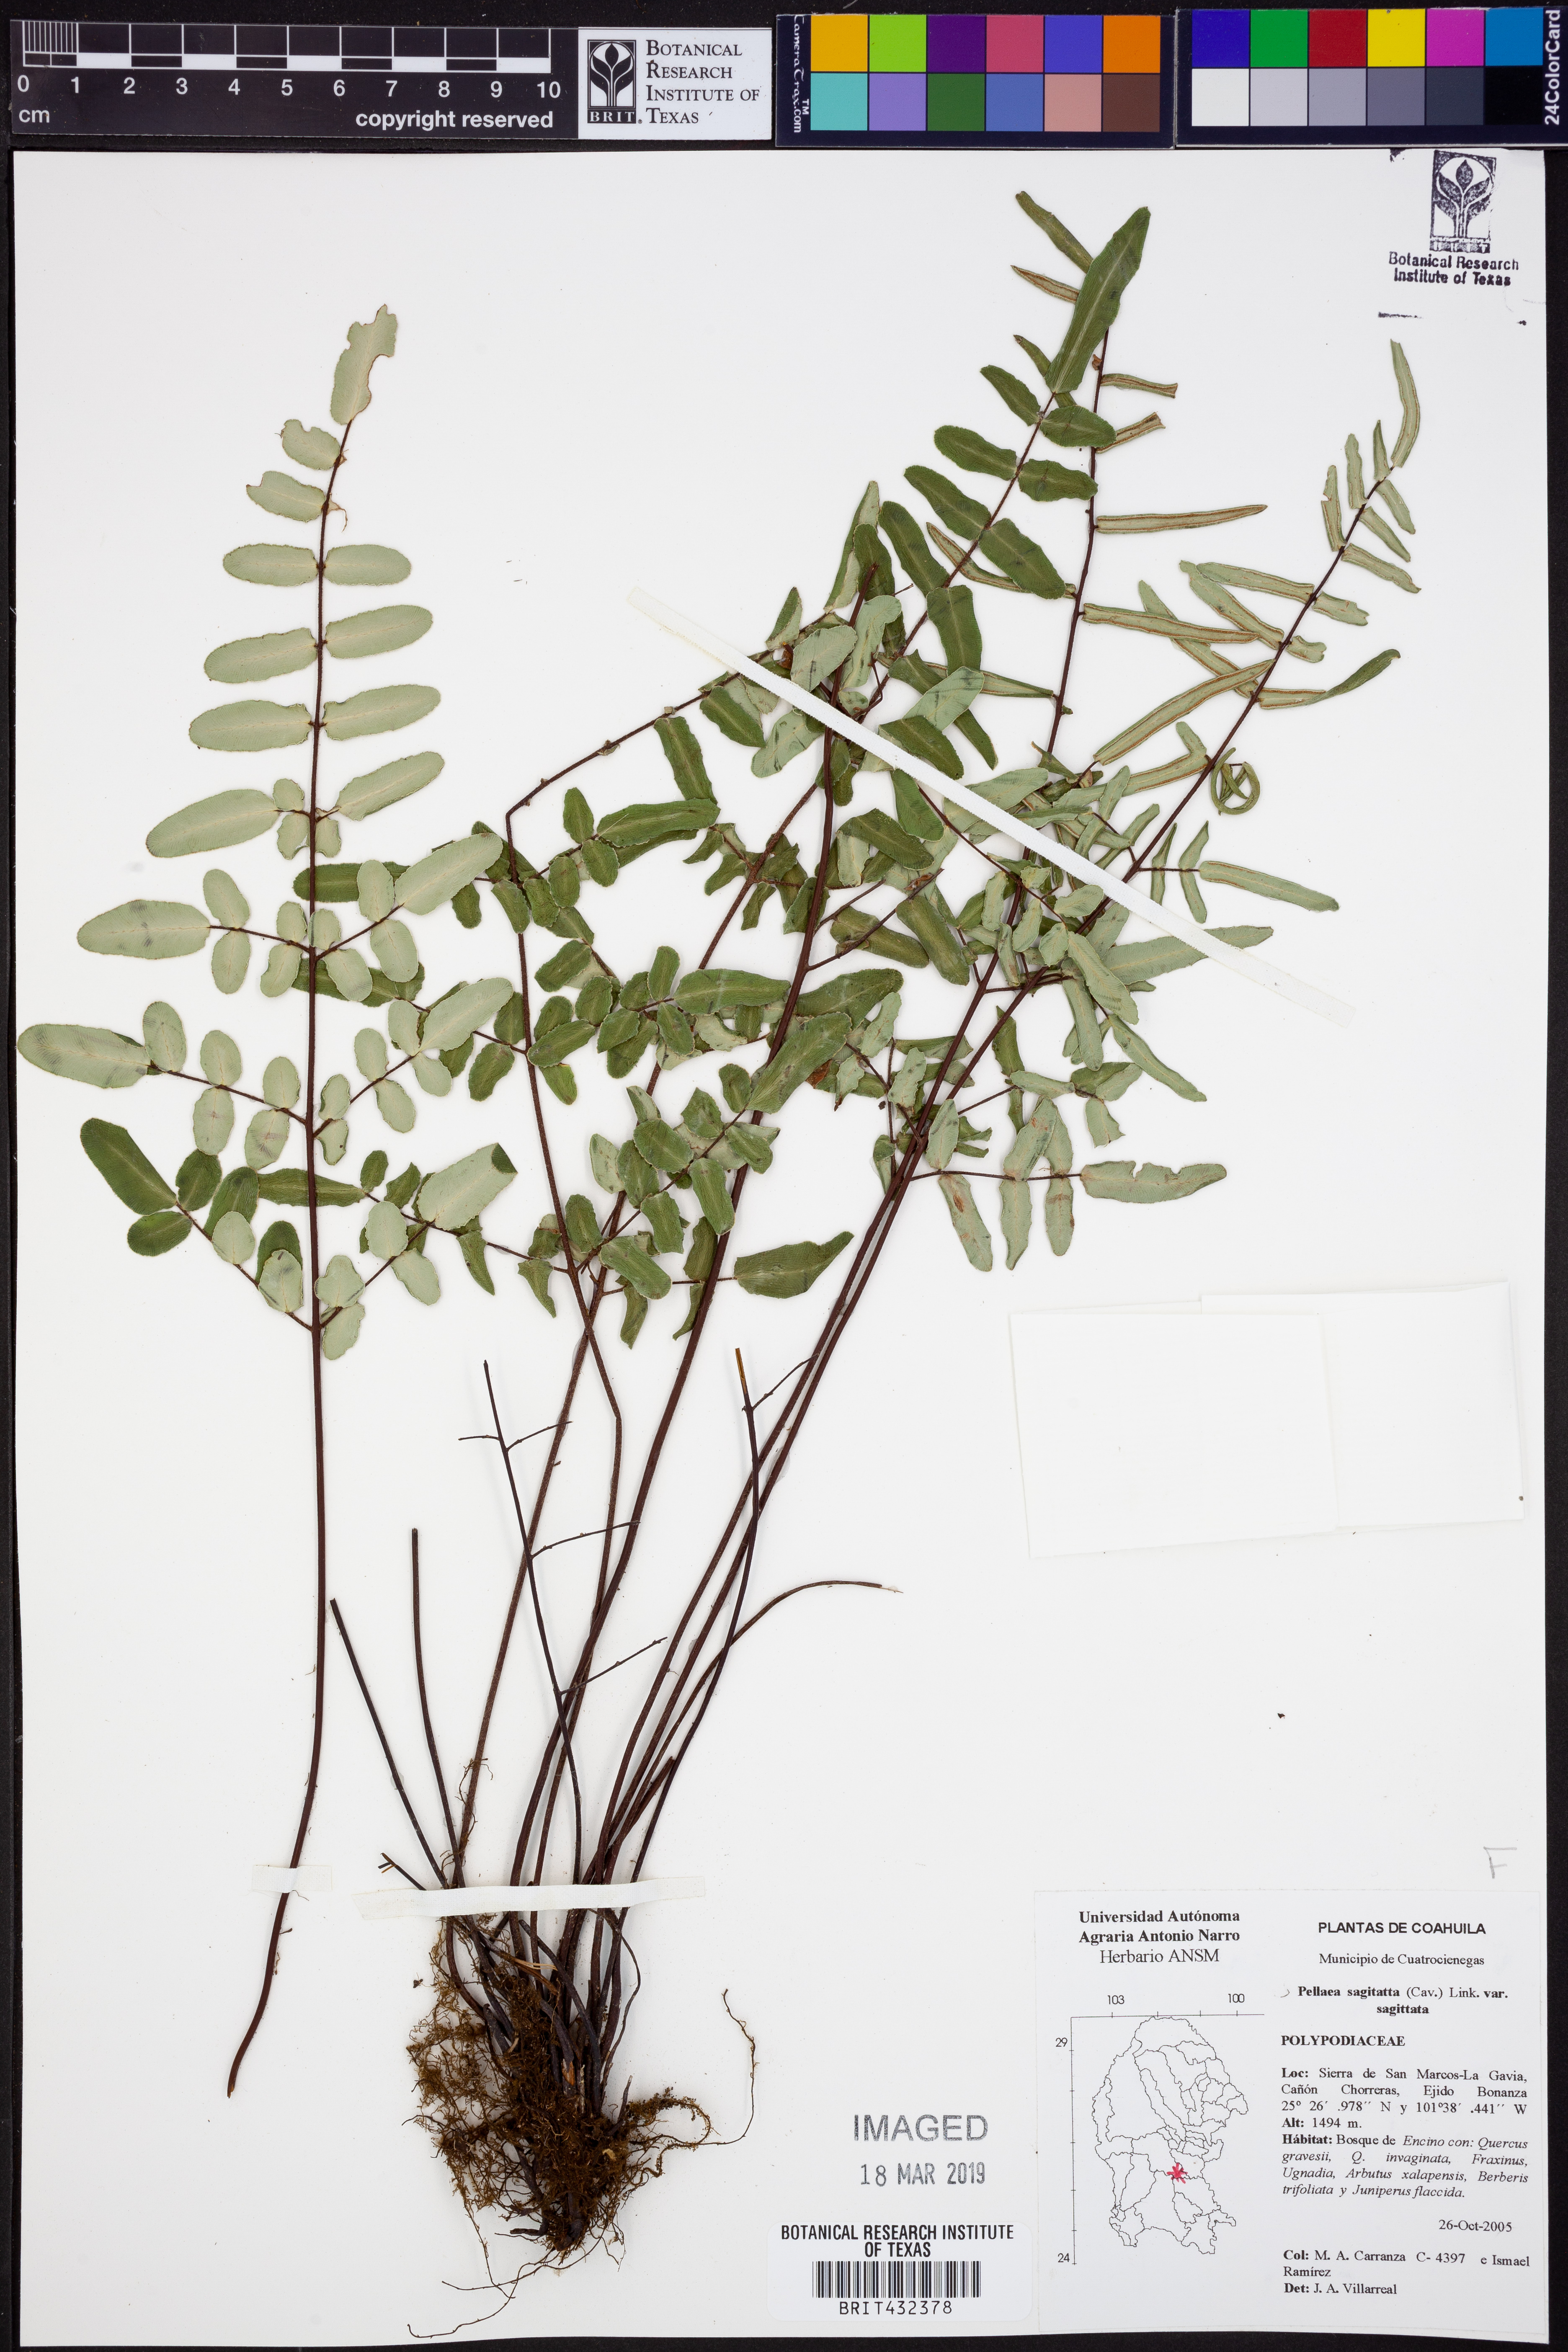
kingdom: Plantae
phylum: Tracheophyta
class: Polypodiopsida
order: Polypodiales
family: Pteridaceae
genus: Pellaea
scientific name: Pellaea sagittata
